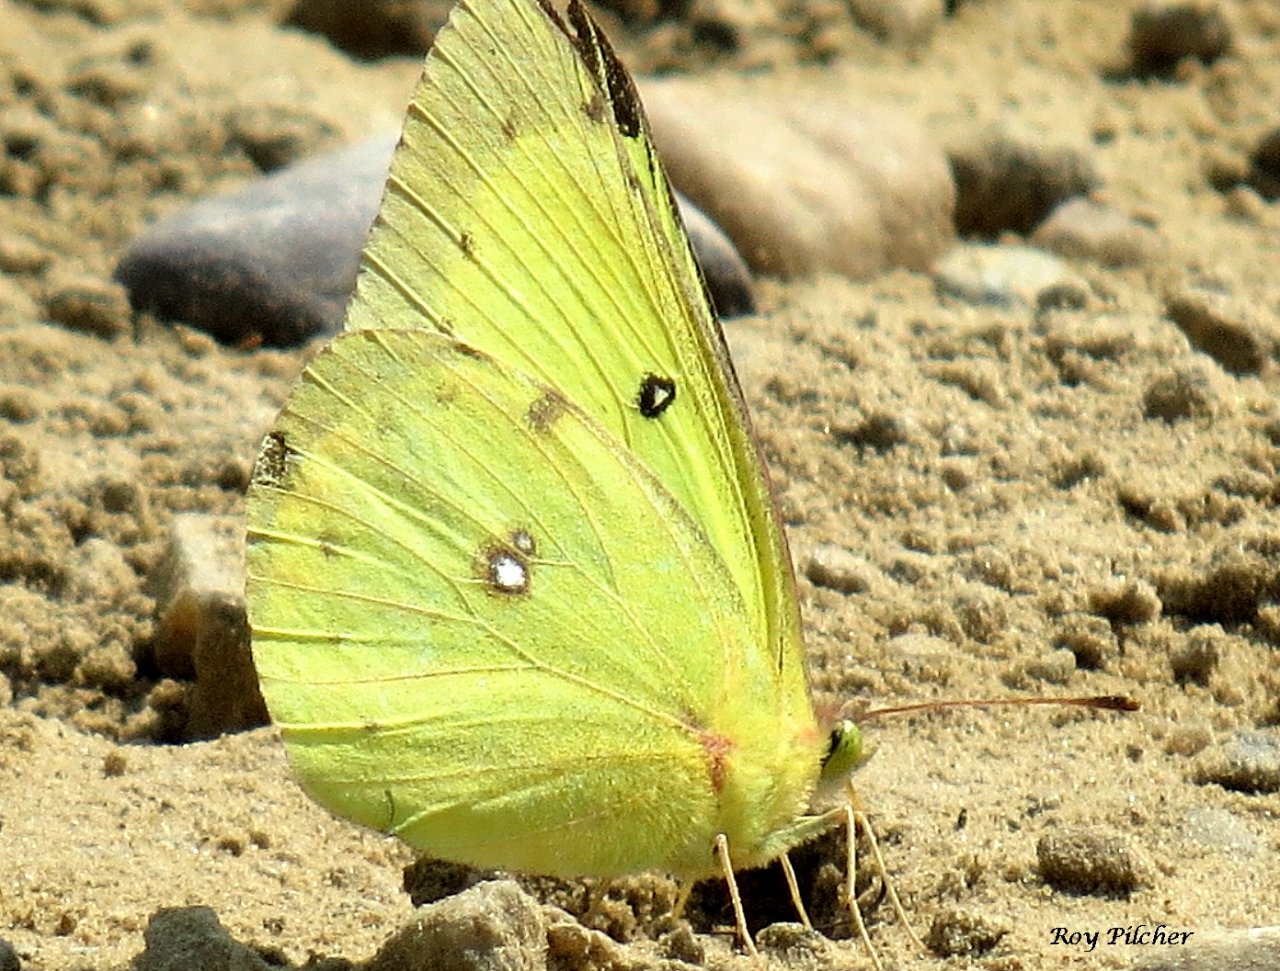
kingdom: Animalia
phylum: Arthropoda
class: Insecta
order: Lepidoptera
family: Pieridae
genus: Colias
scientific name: Colias philodice
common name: Clouded Sulphur
